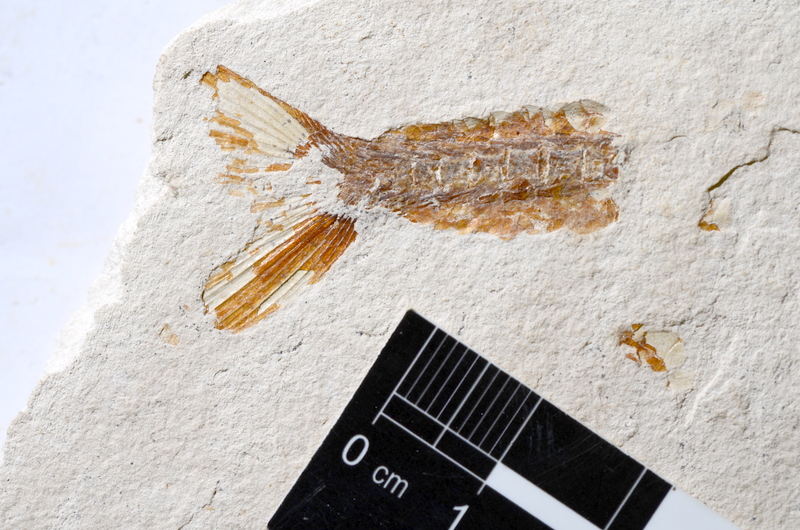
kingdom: Animalia
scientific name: Animalia
